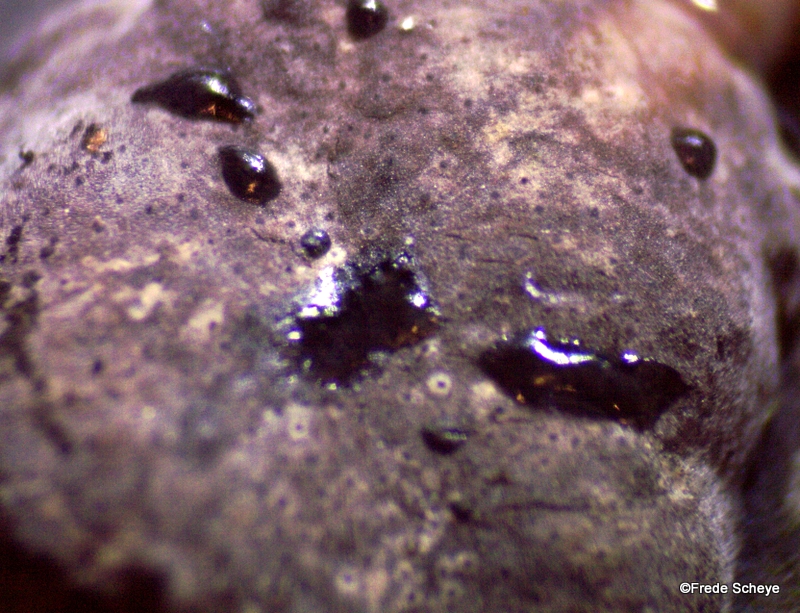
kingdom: Fungi
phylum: Ascomycota
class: Sordariomycetes
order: Xylariales
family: Hypoxylaceae
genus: Hypoxylon
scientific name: Hypoxylon fuscum
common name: kegleformet kulbær
